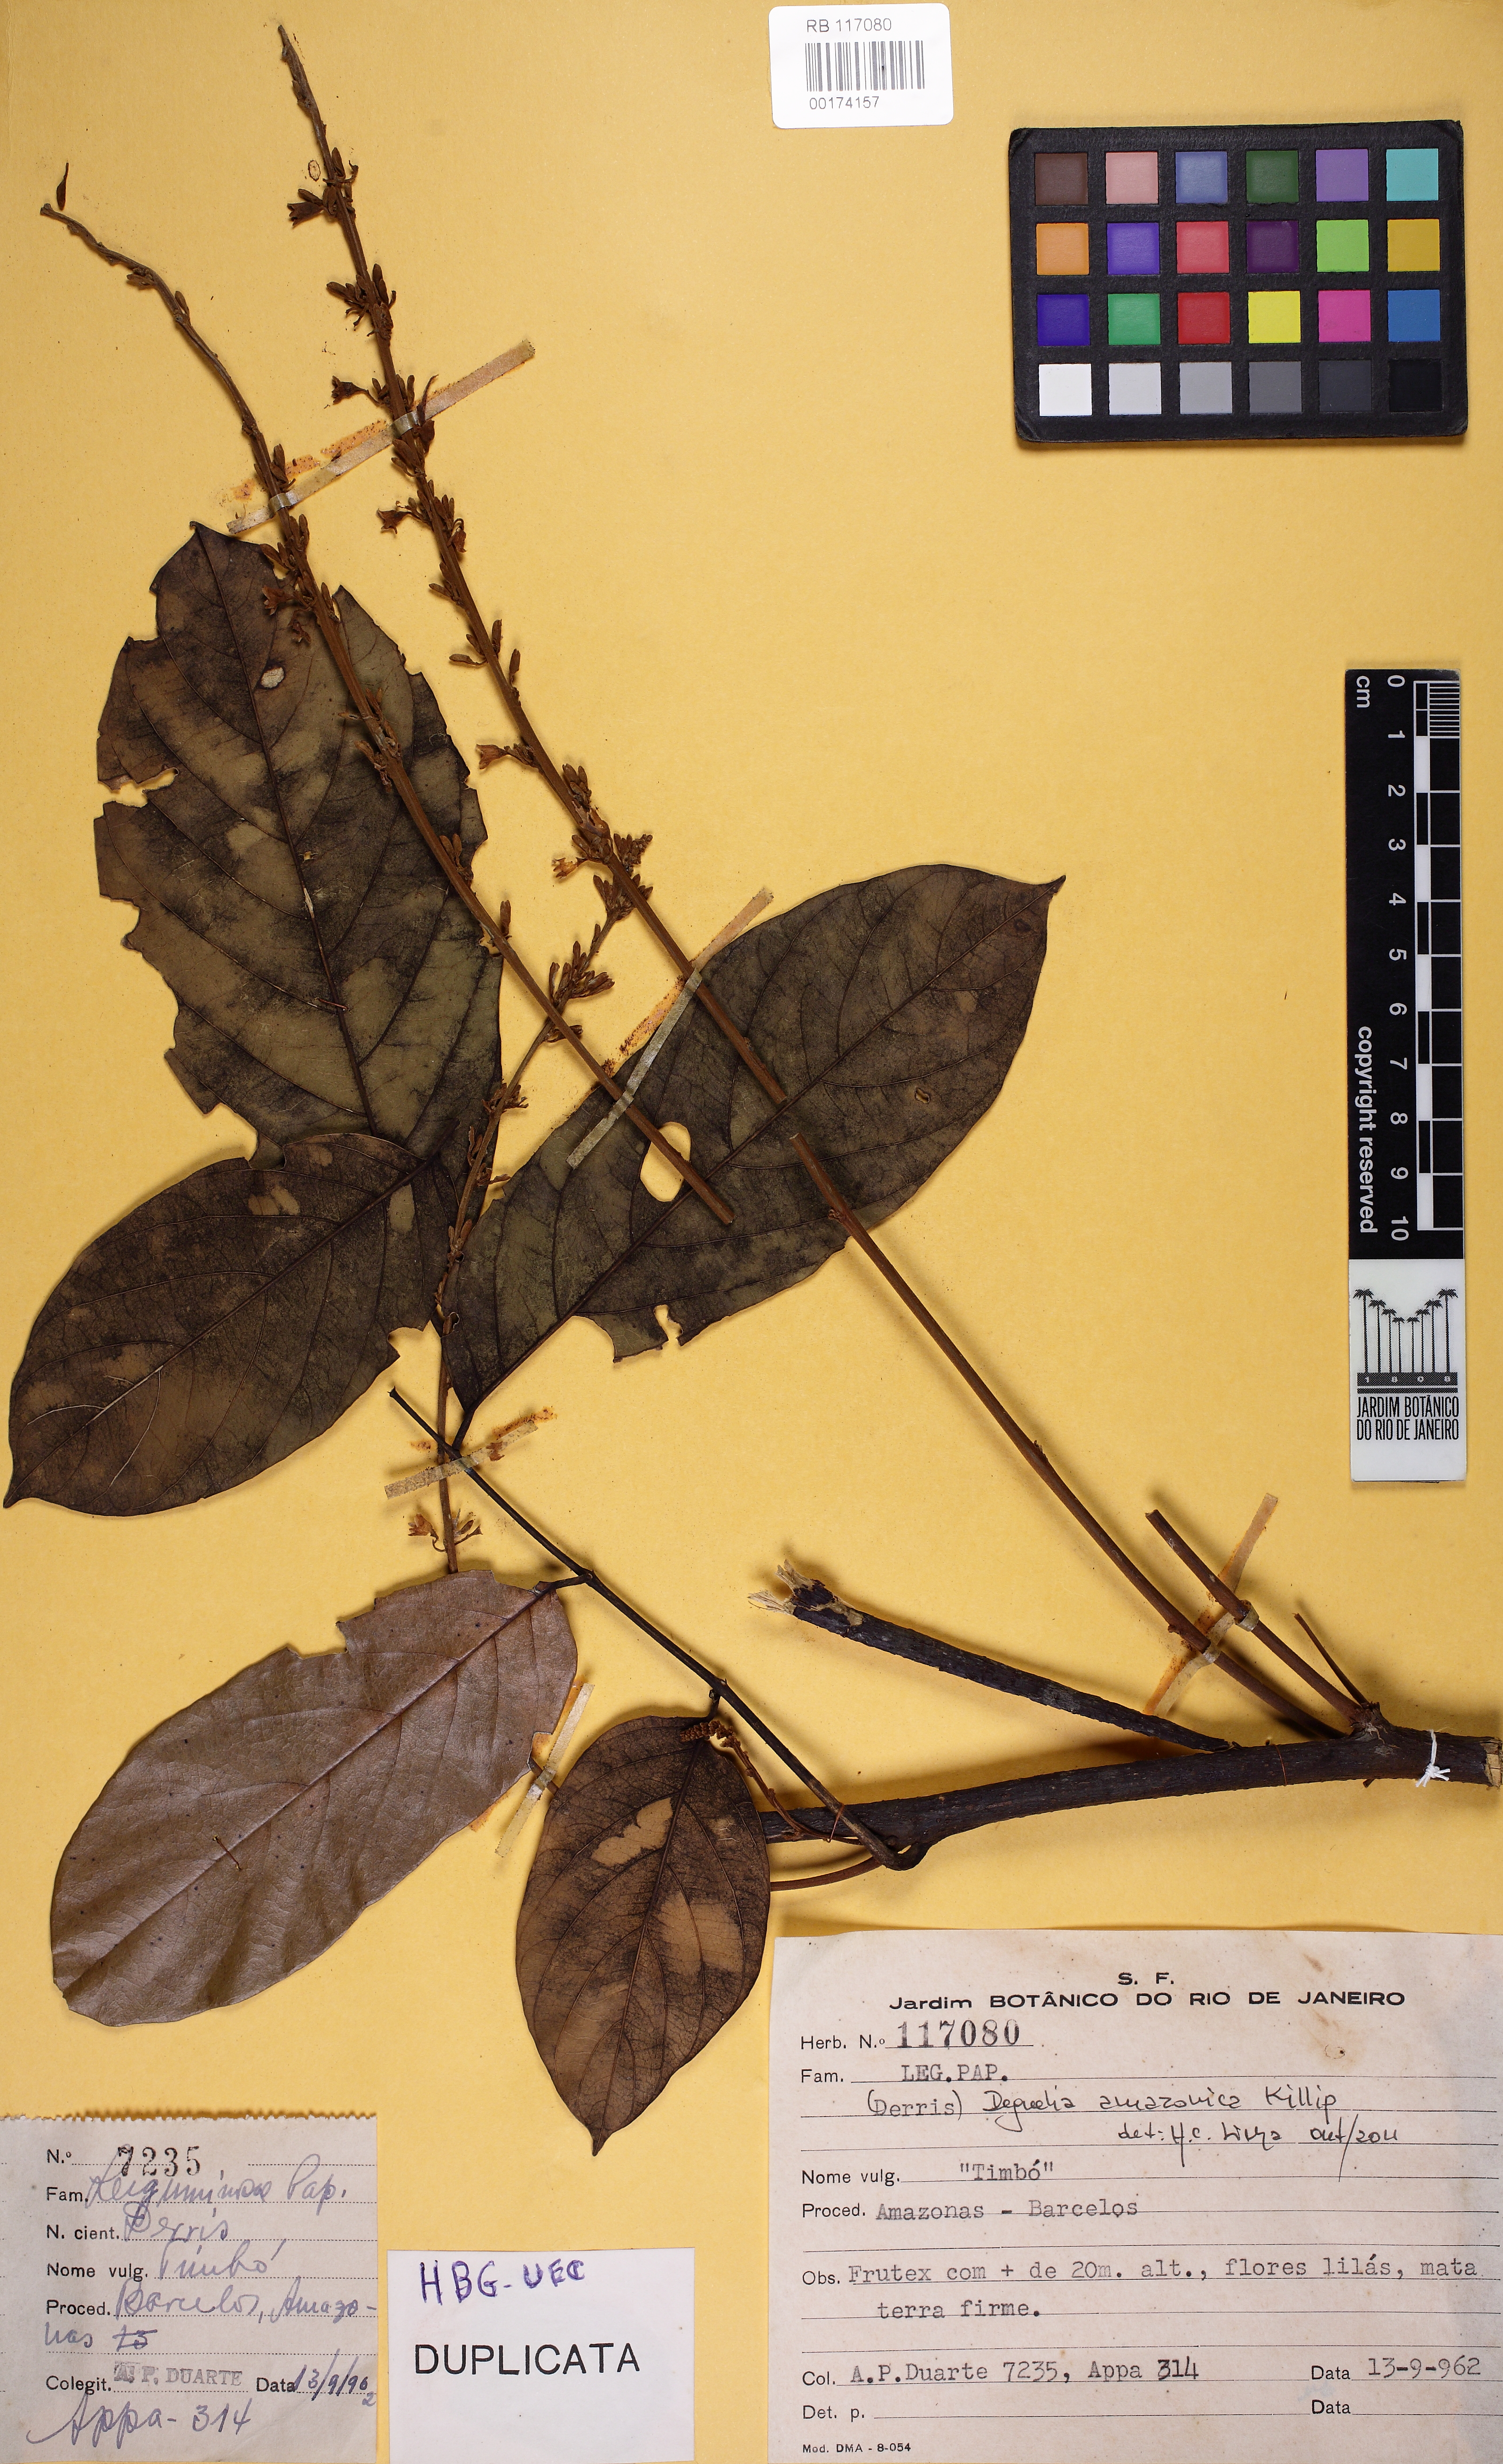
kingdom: Plantae
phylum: Tracheophyta
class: Magnoliopsida
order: Fabales
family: Fabaceae
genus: Derris
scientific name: Derris
